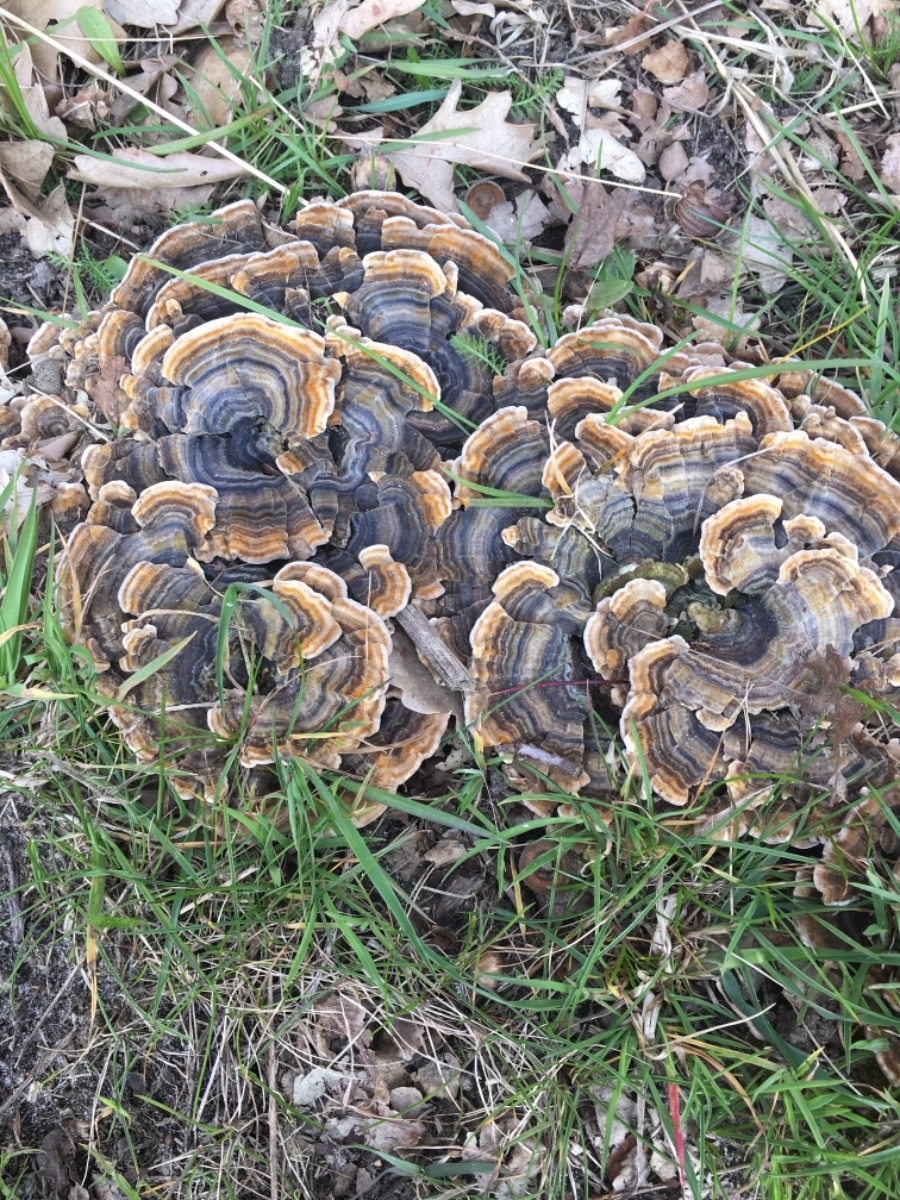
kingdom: Fungi
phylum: Basidiomycota
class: Agaricomycetes
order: Polyporales
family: Polyporaceae
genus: Trametes
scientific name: Trametes versicolor
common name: broget læderporesvamp
